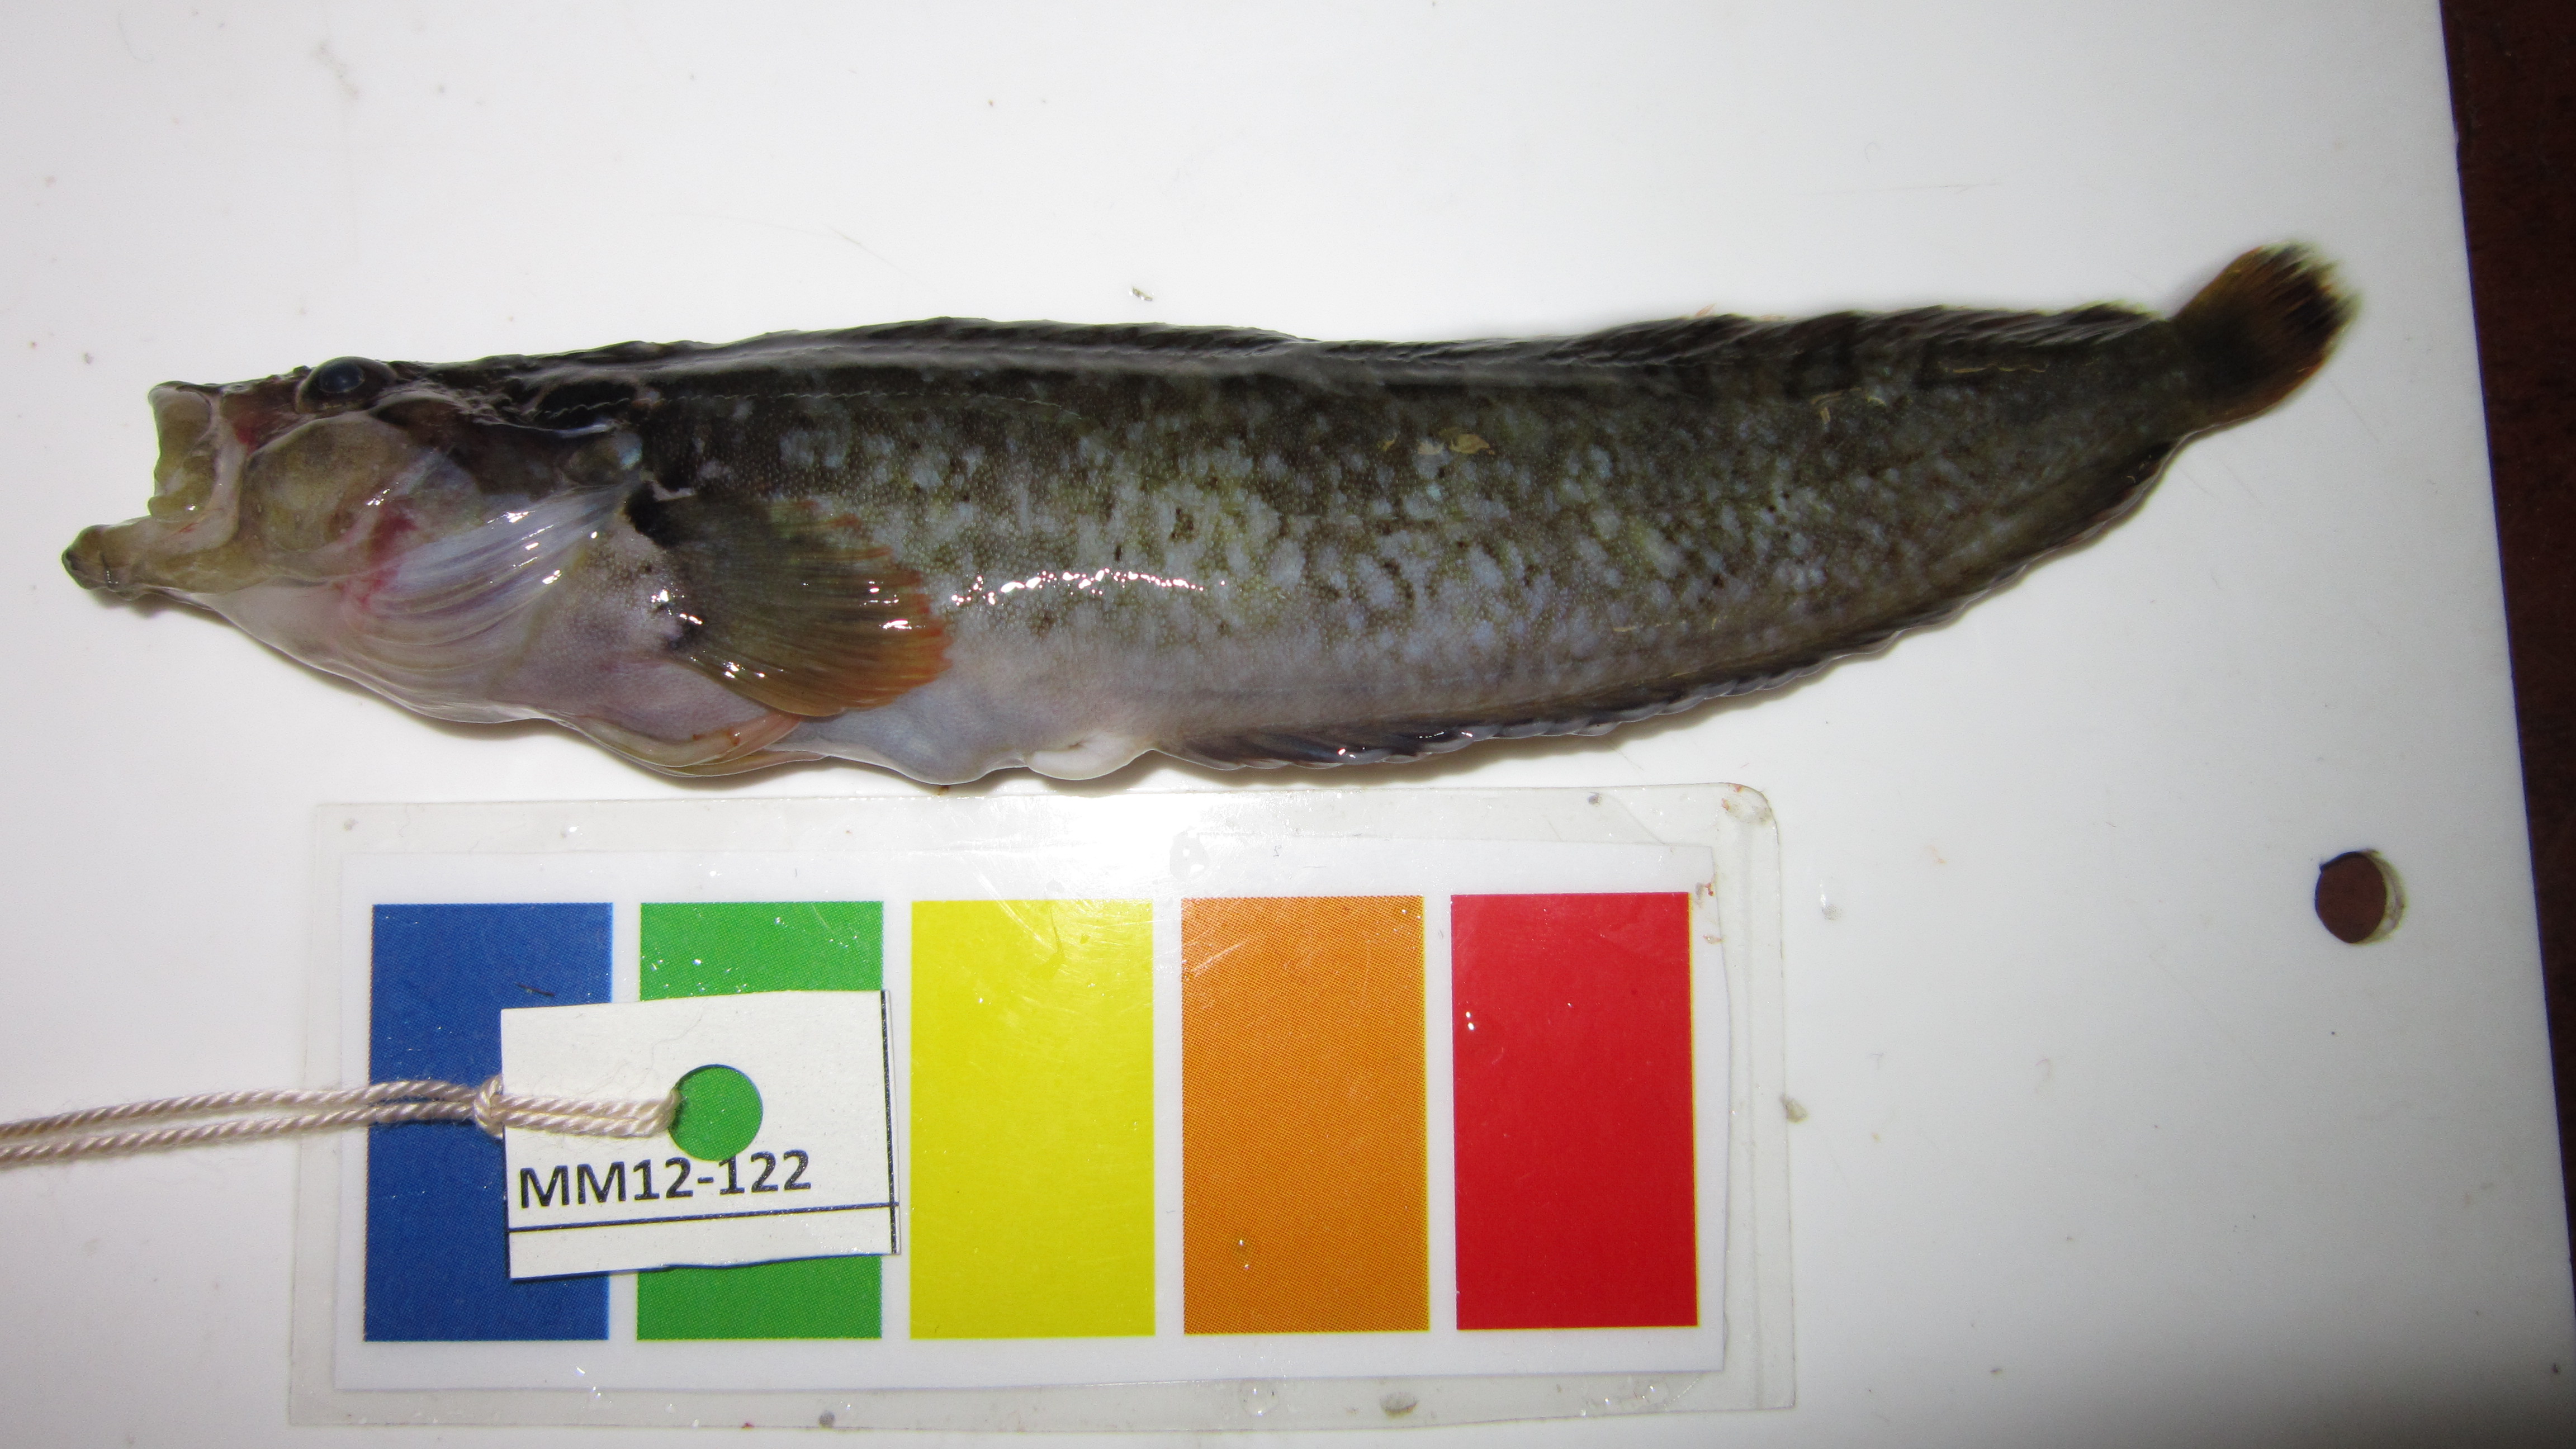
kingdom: Animalia
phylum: Chordata
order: Perciformes
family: Clinidae
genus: Cirrhibarbis
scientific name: Cirrhibarbis capensis
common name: Barbelled klipfish
